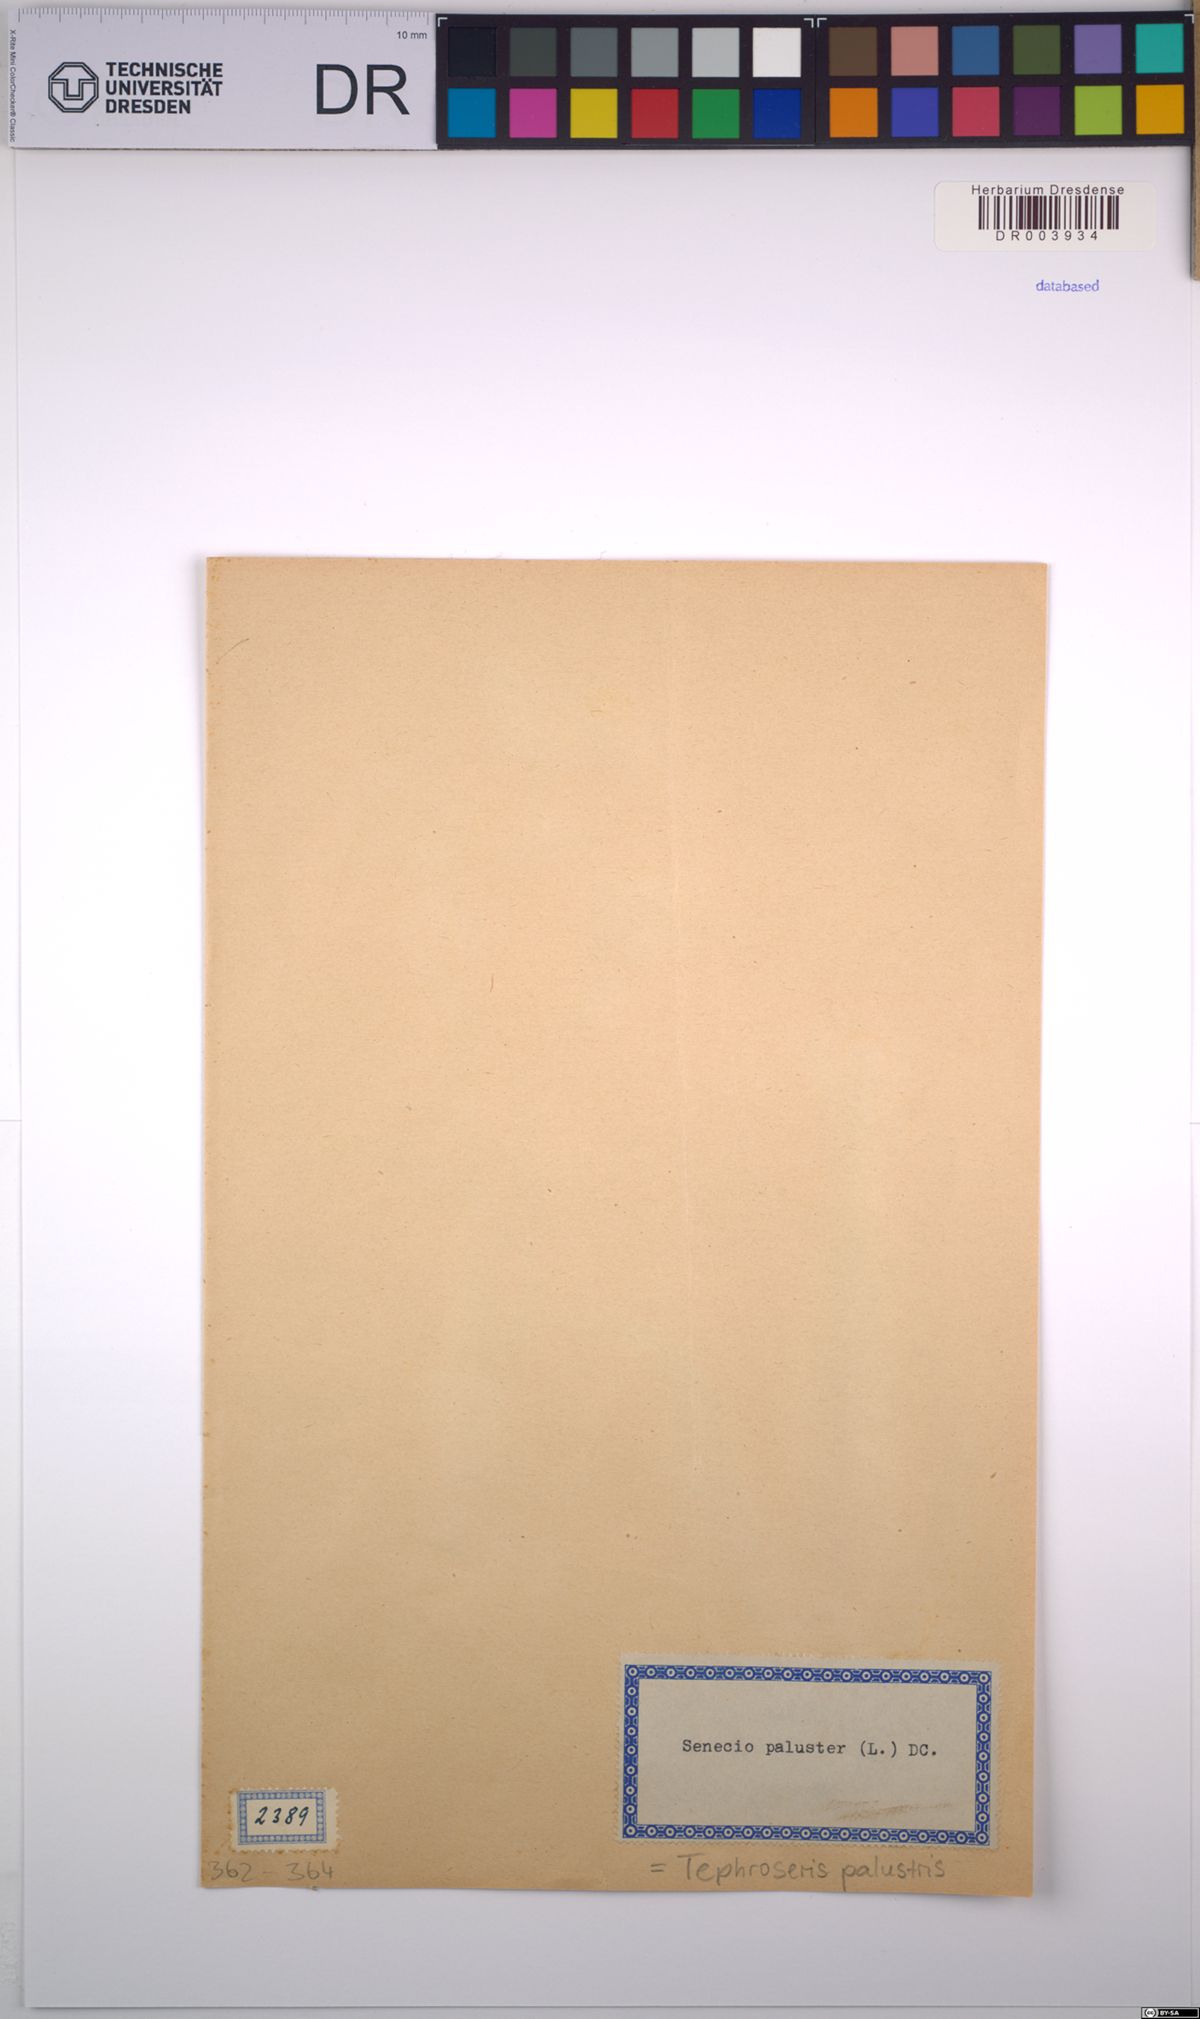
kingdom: Plantae
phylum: Tracheophyta
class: Magnoliopsida
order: Asterales
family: Asteraceae
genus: Tephroseris
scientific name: Tephroseris palustris
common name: Marsh fleawort
